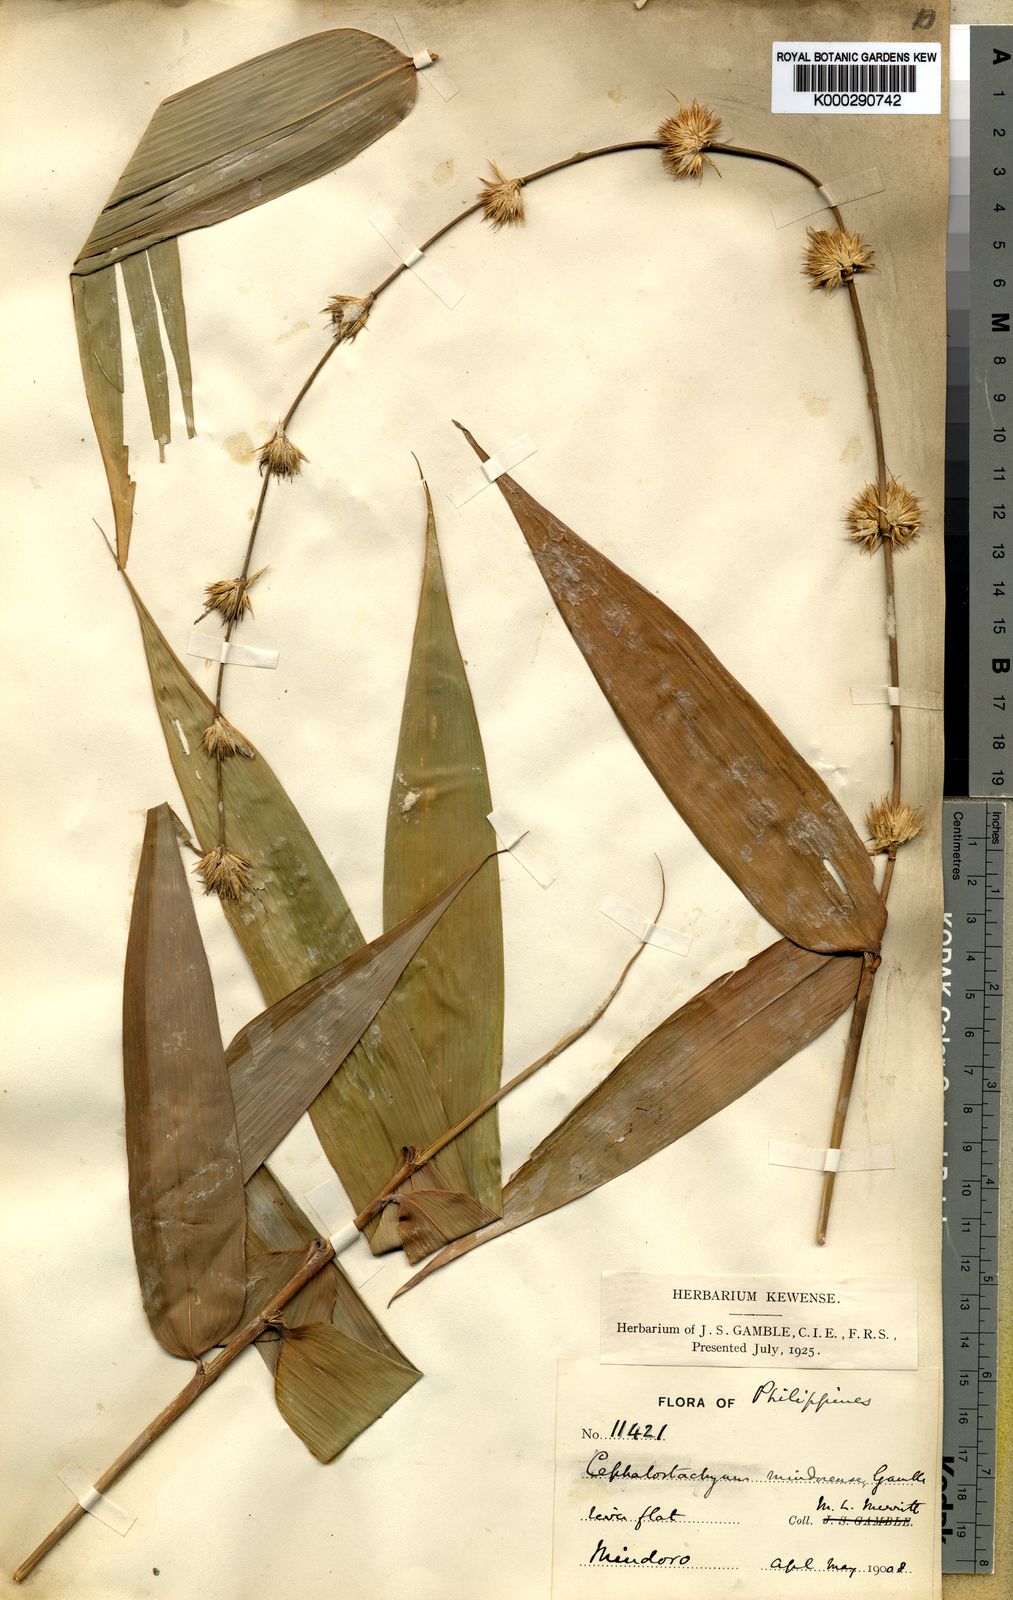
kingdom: Plantae
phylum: Tracheophyta
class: Liliopsida
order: Poales
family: Poaceae
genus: Cephalostachyum
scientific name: Cephalostachyum mindorense
